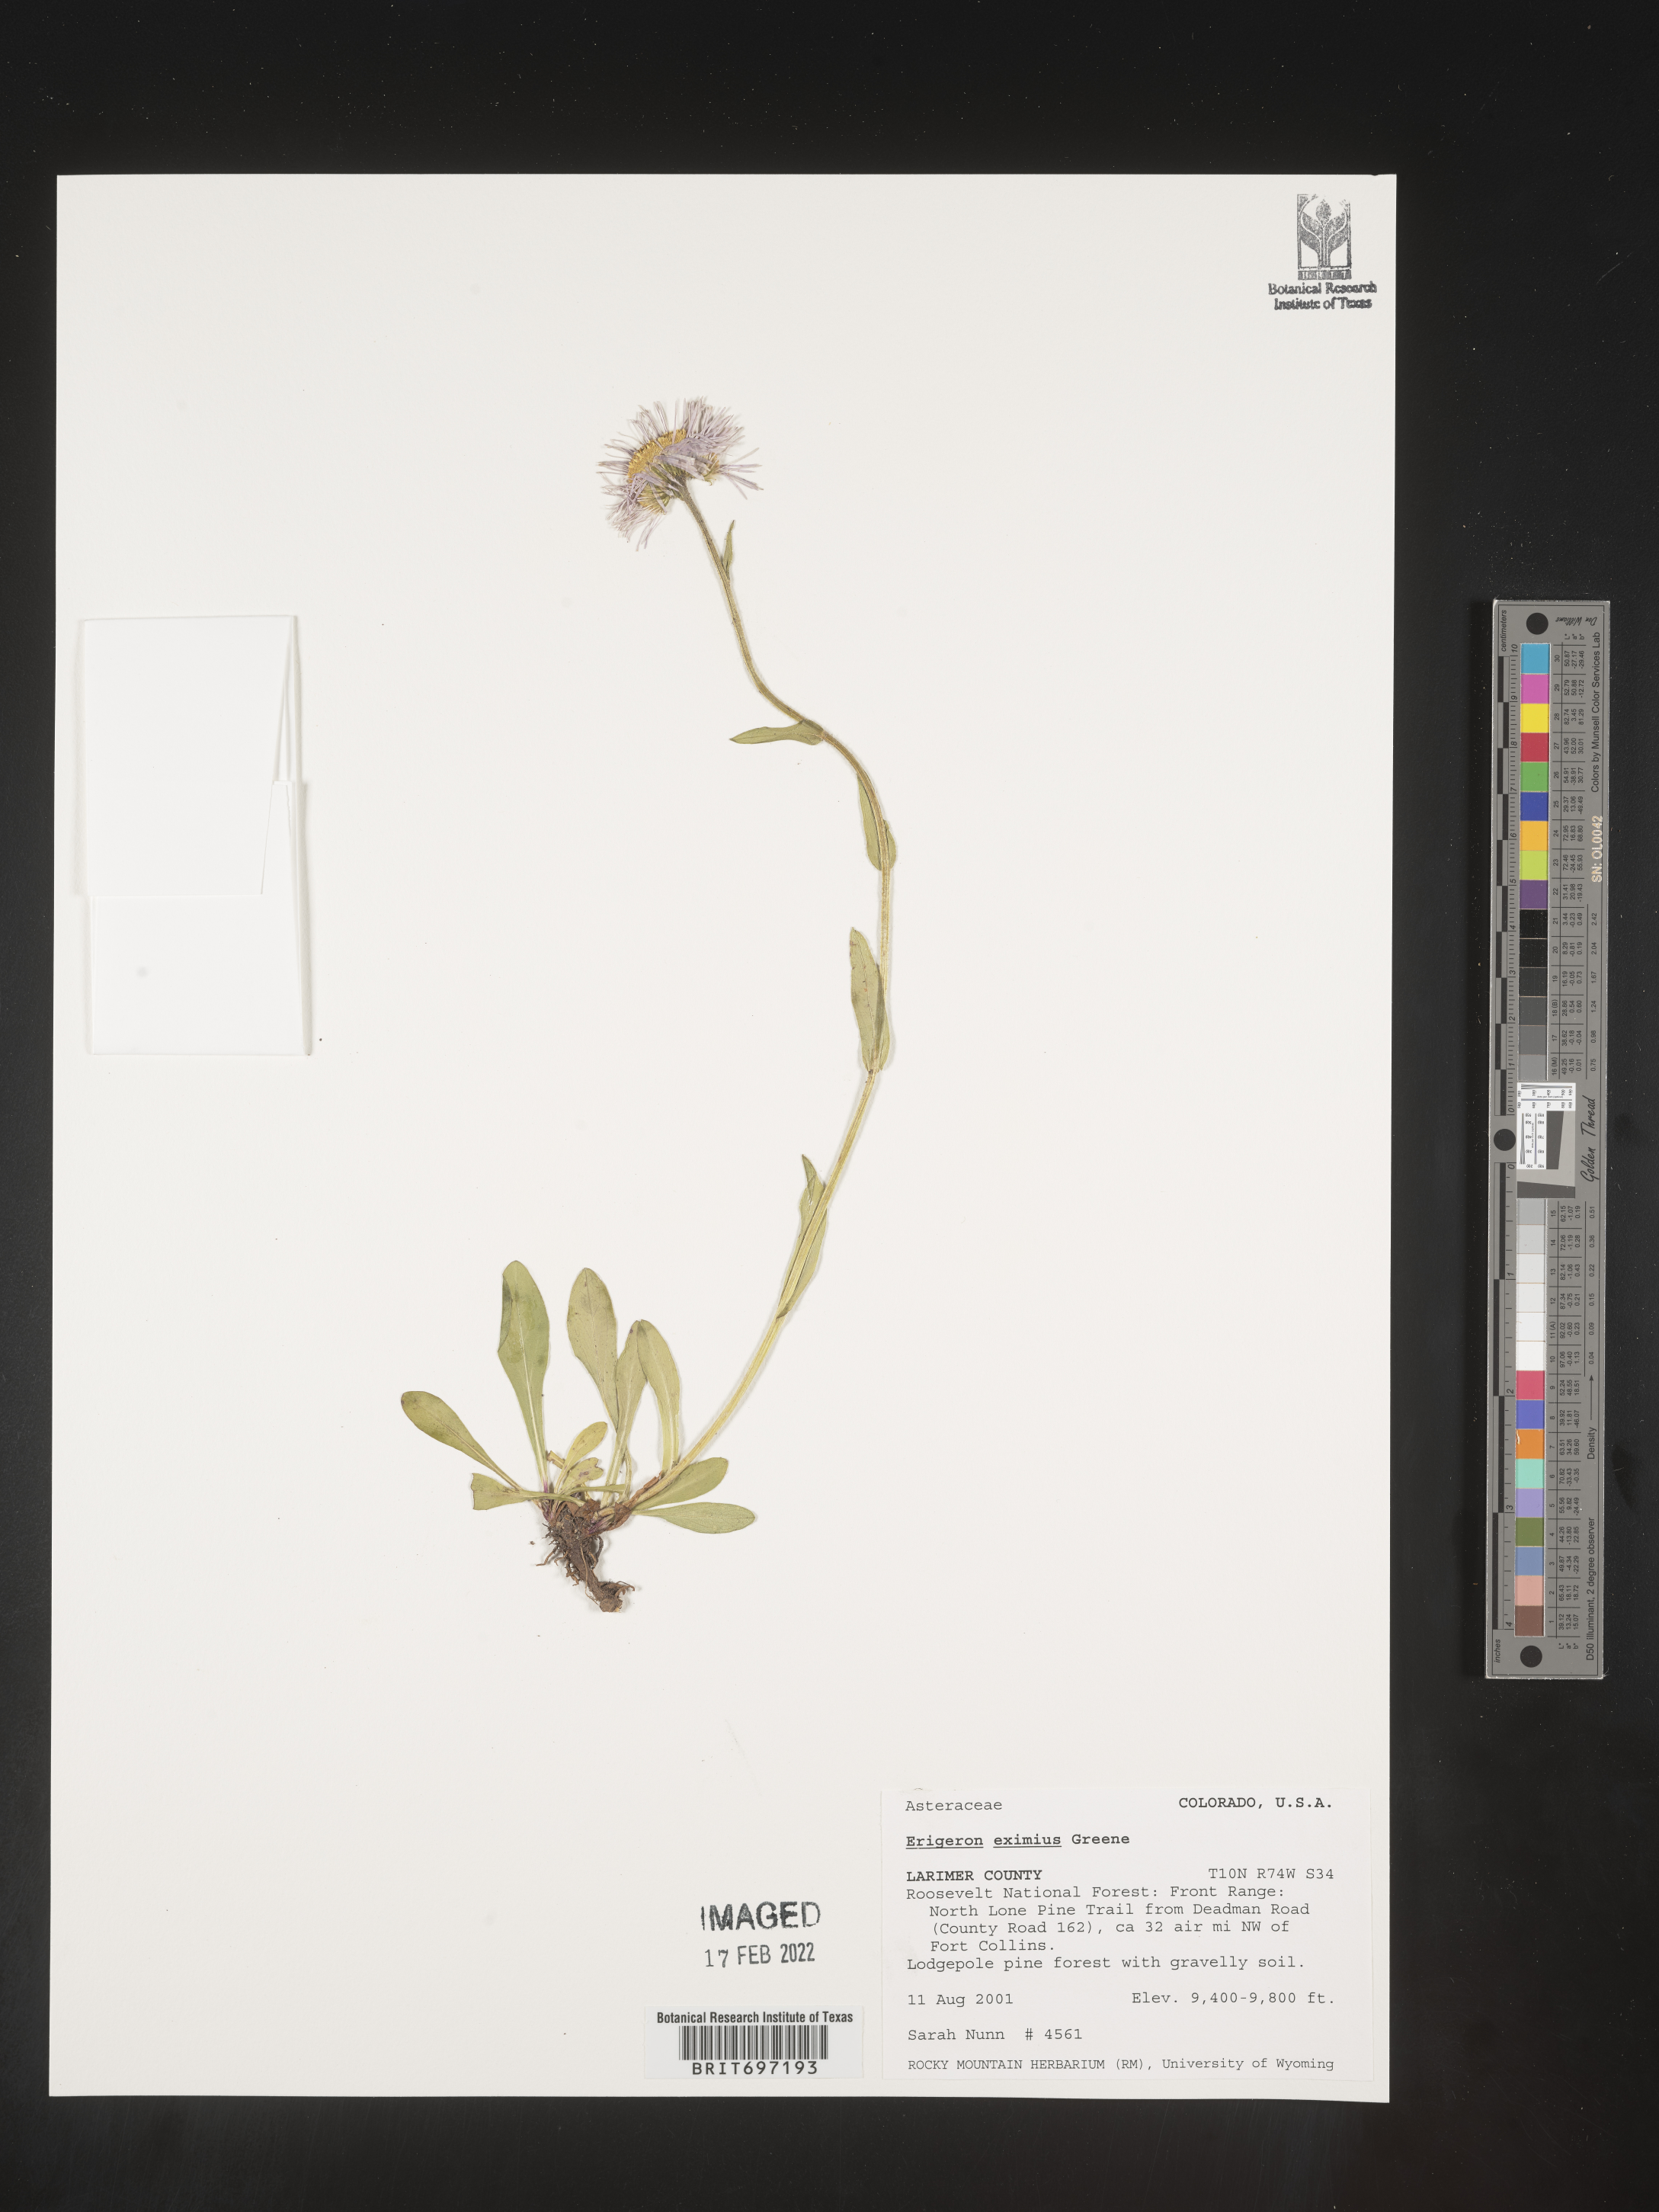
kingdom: Plantae
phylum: Tracheophyta
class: Magnoliopsida
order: Asterales
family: Asteraceae
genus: Erigeron
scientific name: Erigeron eximius
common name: Spruce-fir fleabane
